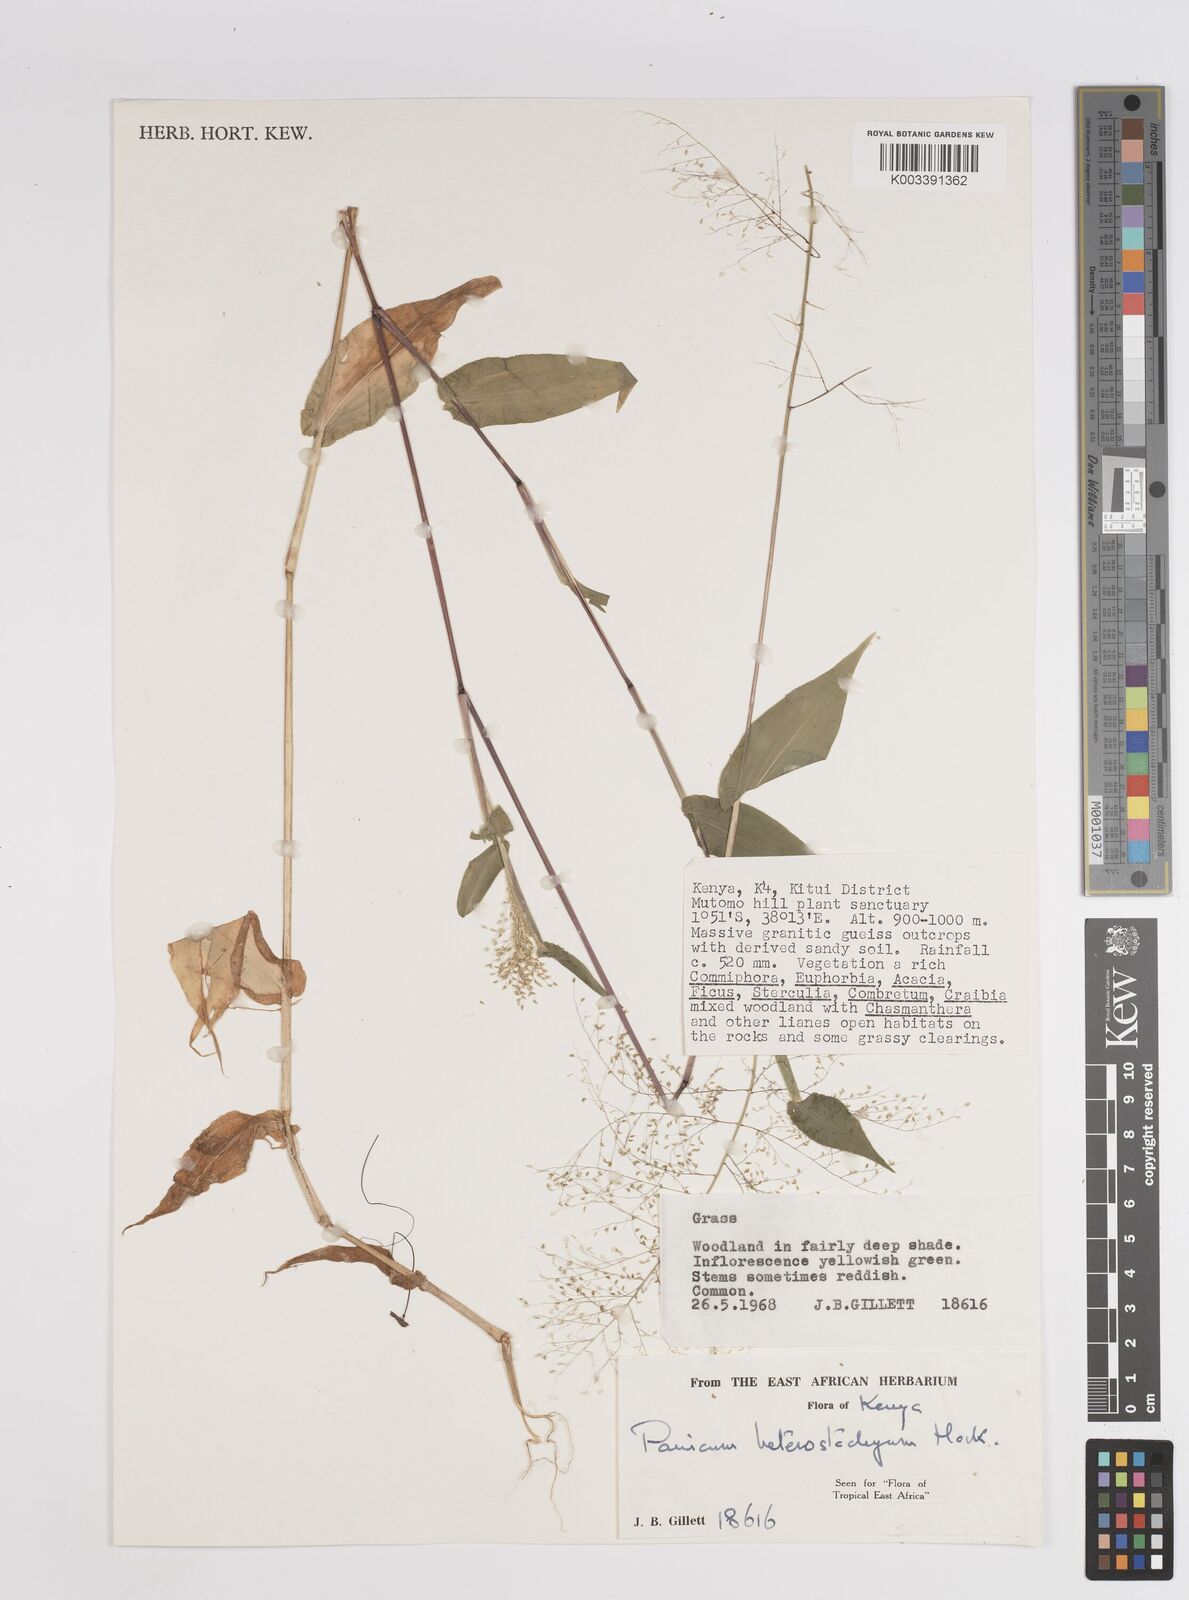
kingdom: Plantae
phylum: Tracheophyta
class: Liliopsida
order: Poales
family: Poaceae
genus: Panicum
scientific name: Panicum hirtum
